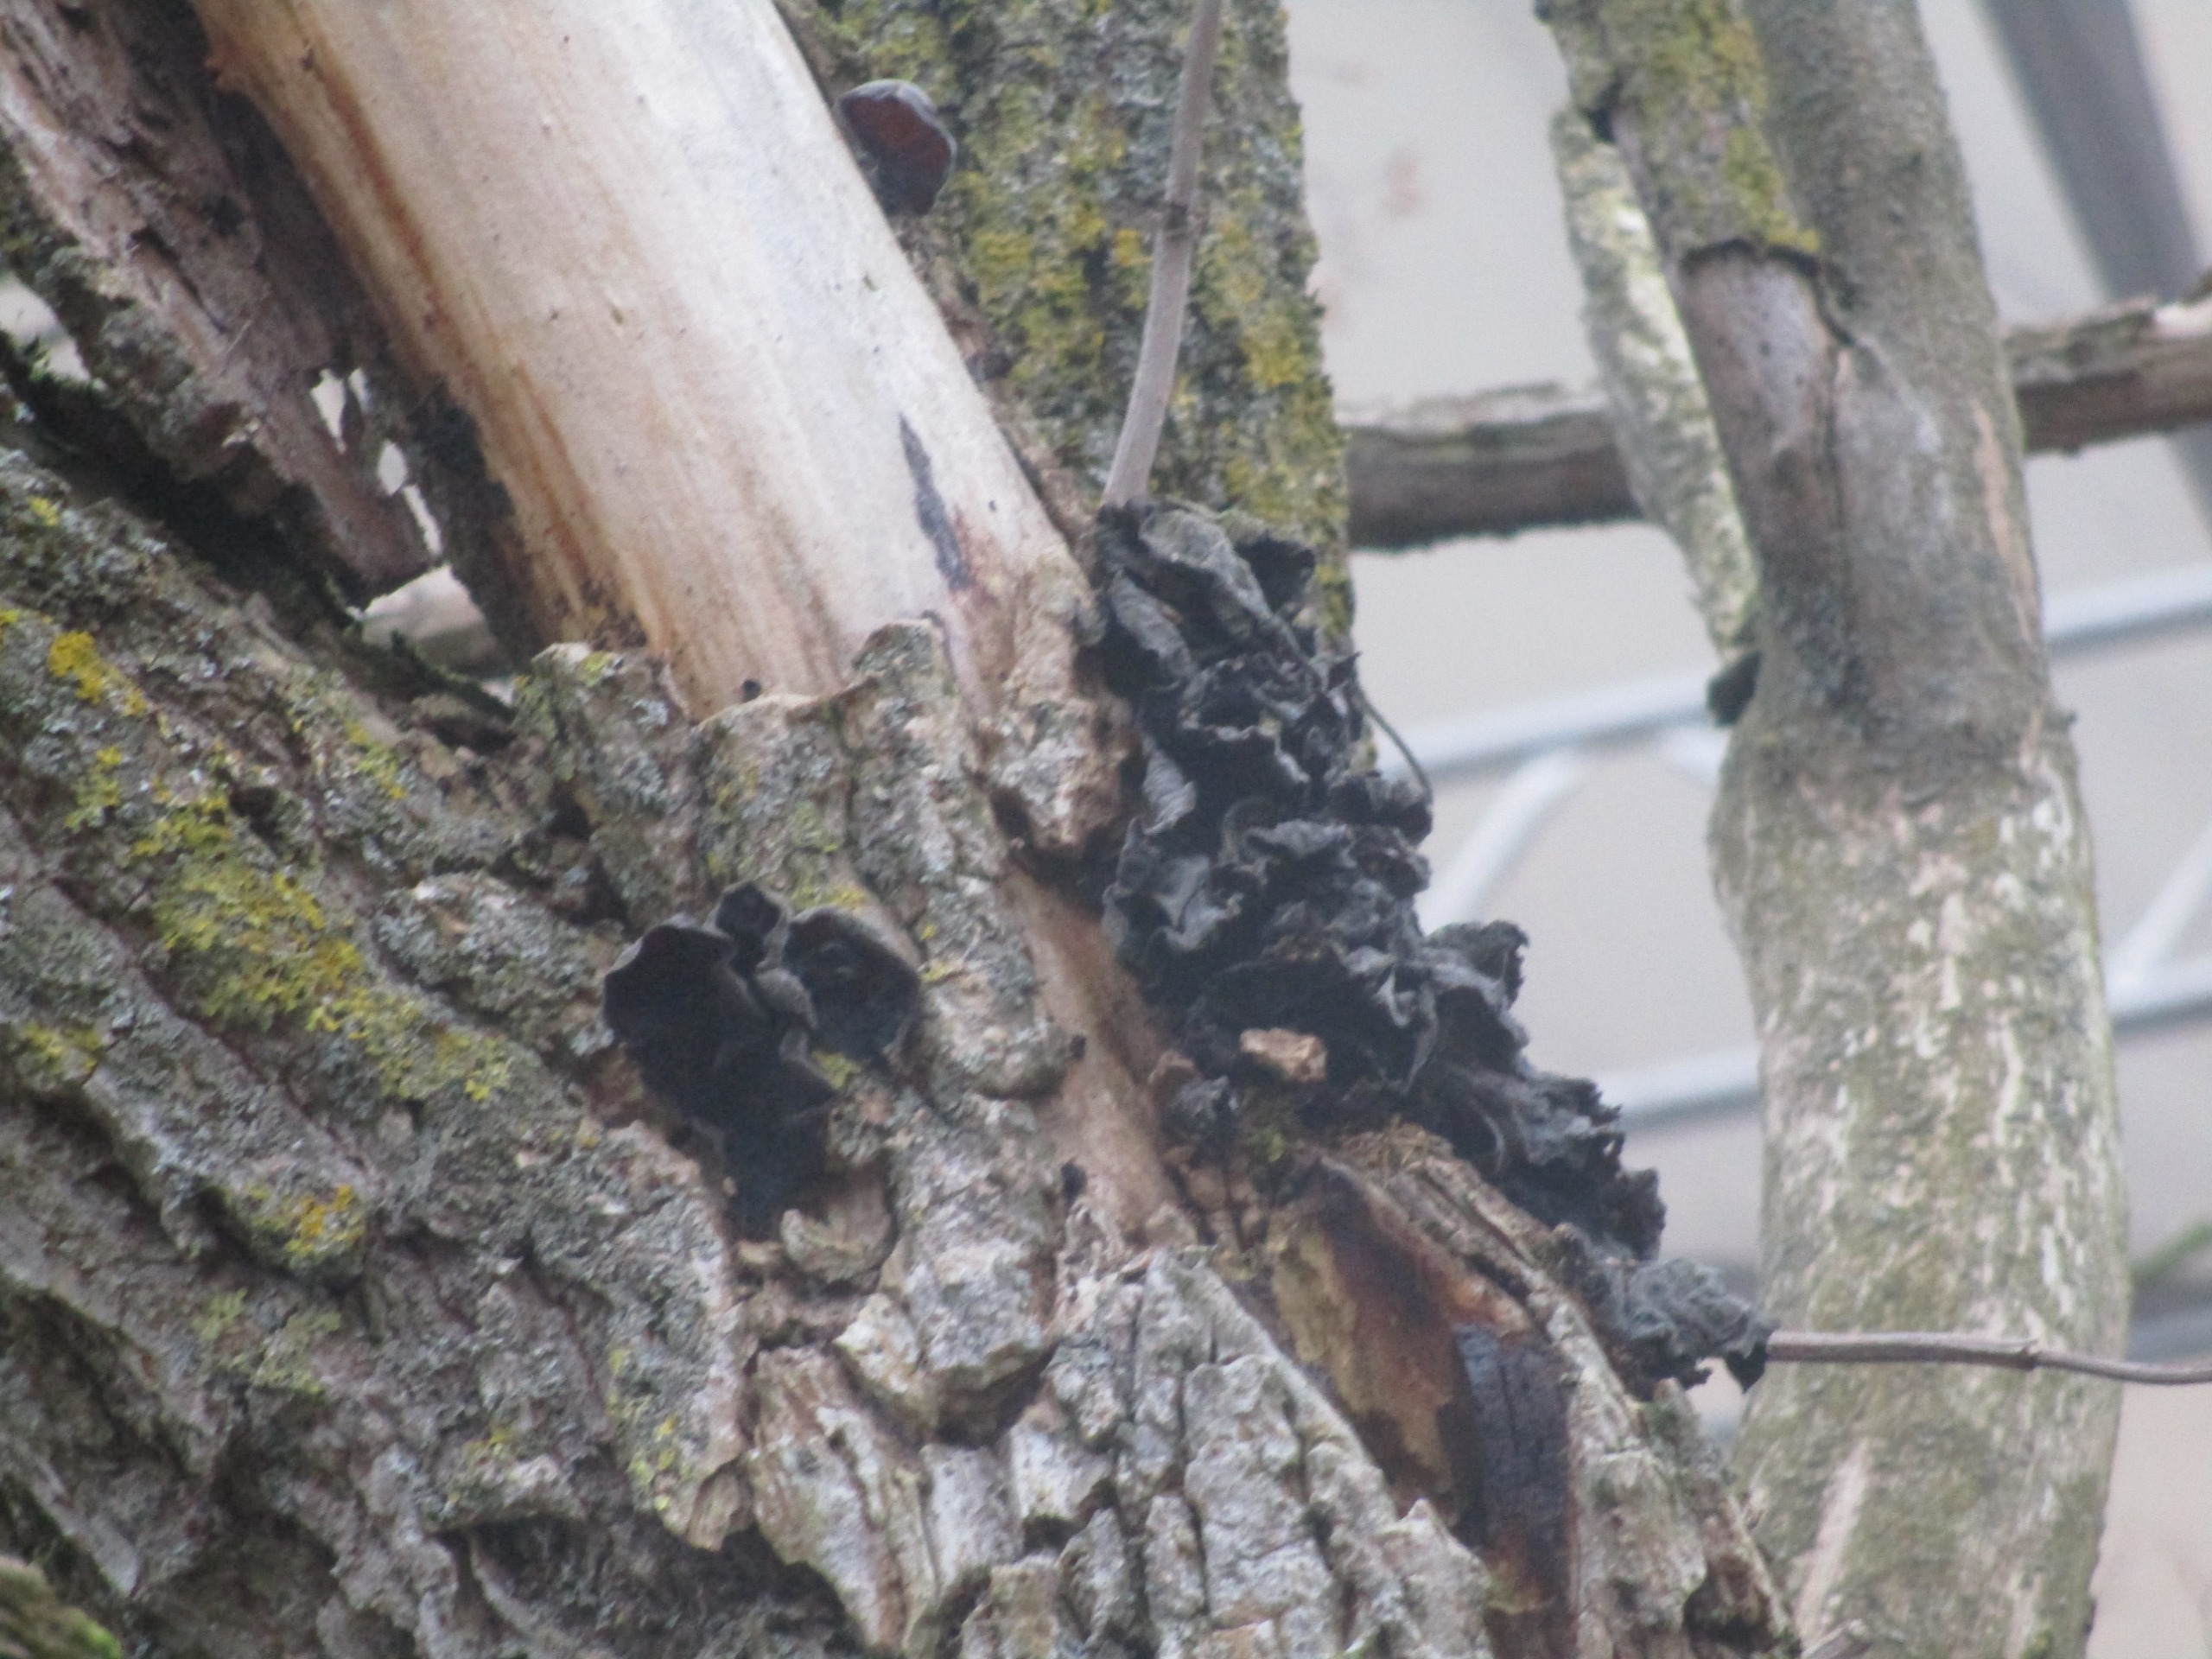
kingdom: Fungi
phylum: Basidiomycota
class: Agaricomycetes
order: Auriculariales
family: Auriculariaceae
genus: Auricularia
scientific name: Auricularia auricula-judae
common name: Almindelig judasøre
